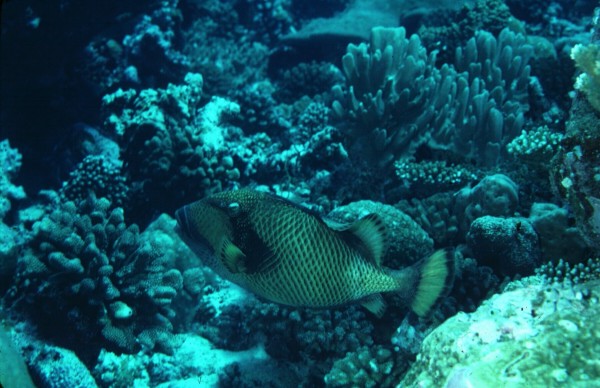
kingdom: Animalia
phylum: Chordata
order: Tetraodontiformes
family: Balistidae
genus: Balistoides
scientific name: Balistoides viridescens
